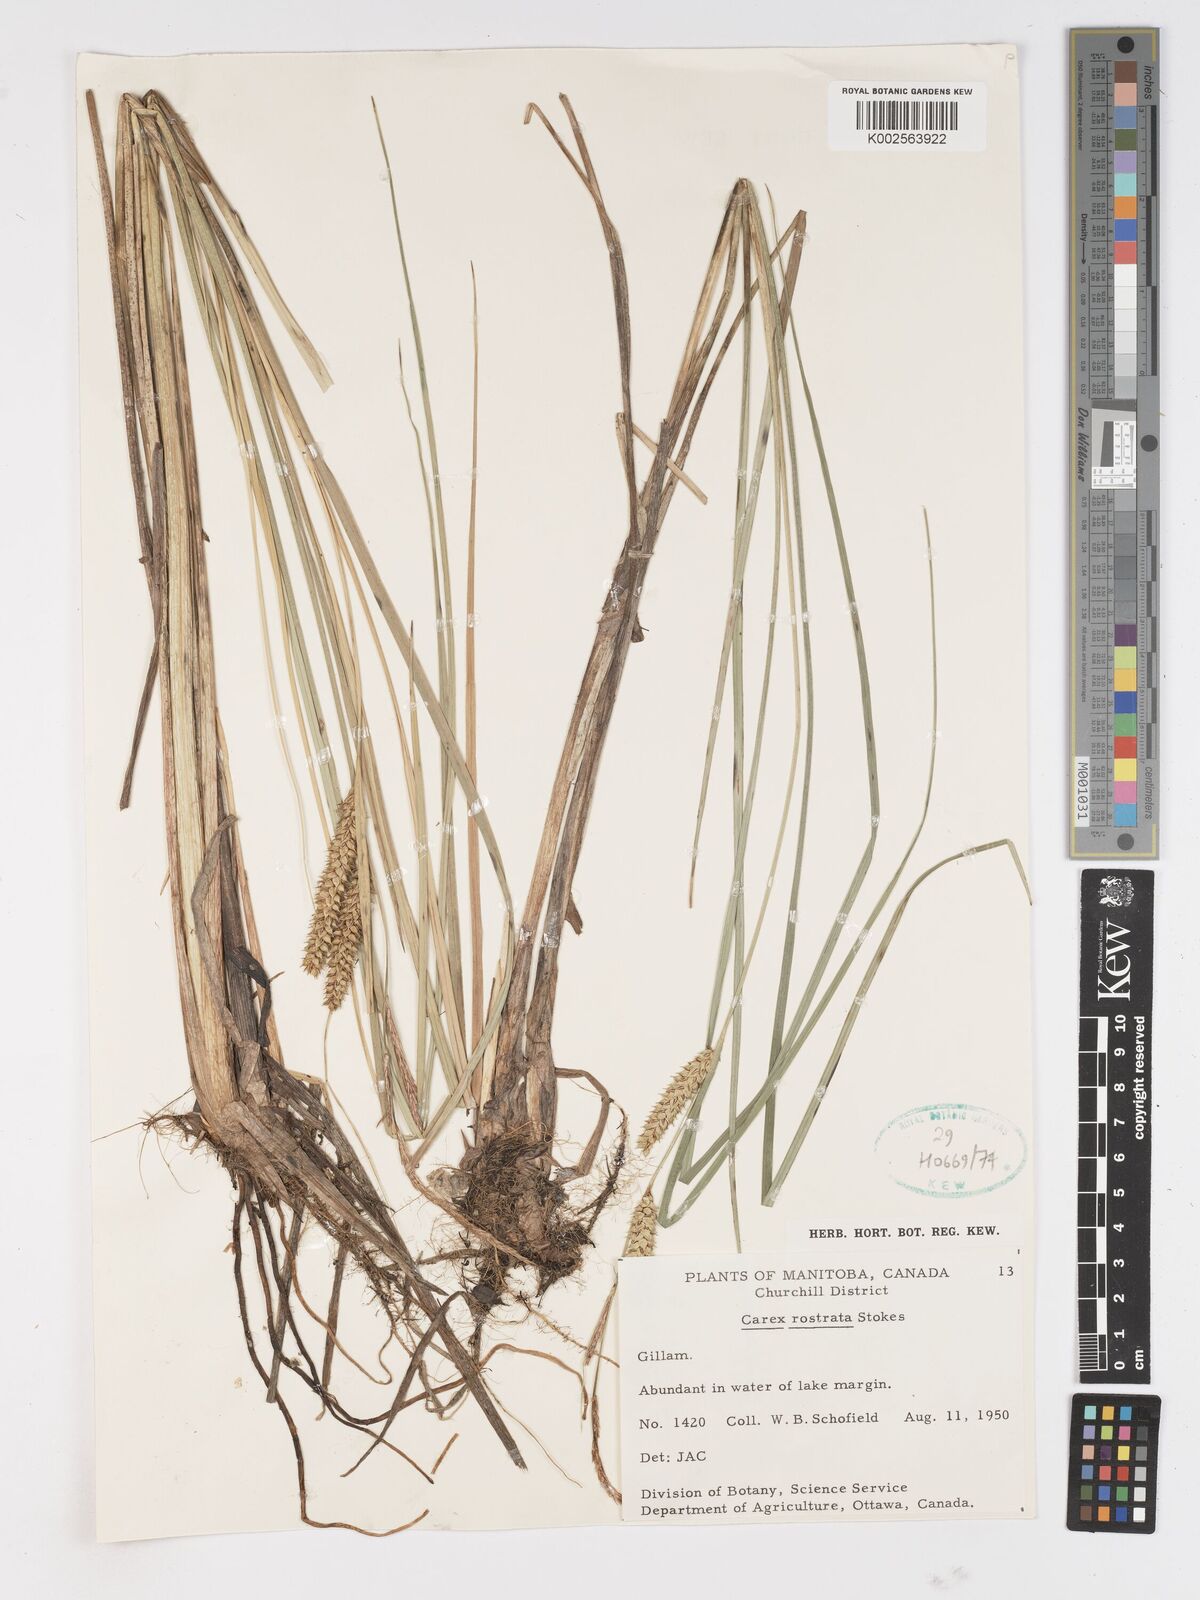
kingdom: Plantae
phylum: Tracheophyta
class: Liliopsida
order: Poales
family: Cyperaceae
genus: Carex
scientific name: Carex rostrata
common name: Bottle sedge
